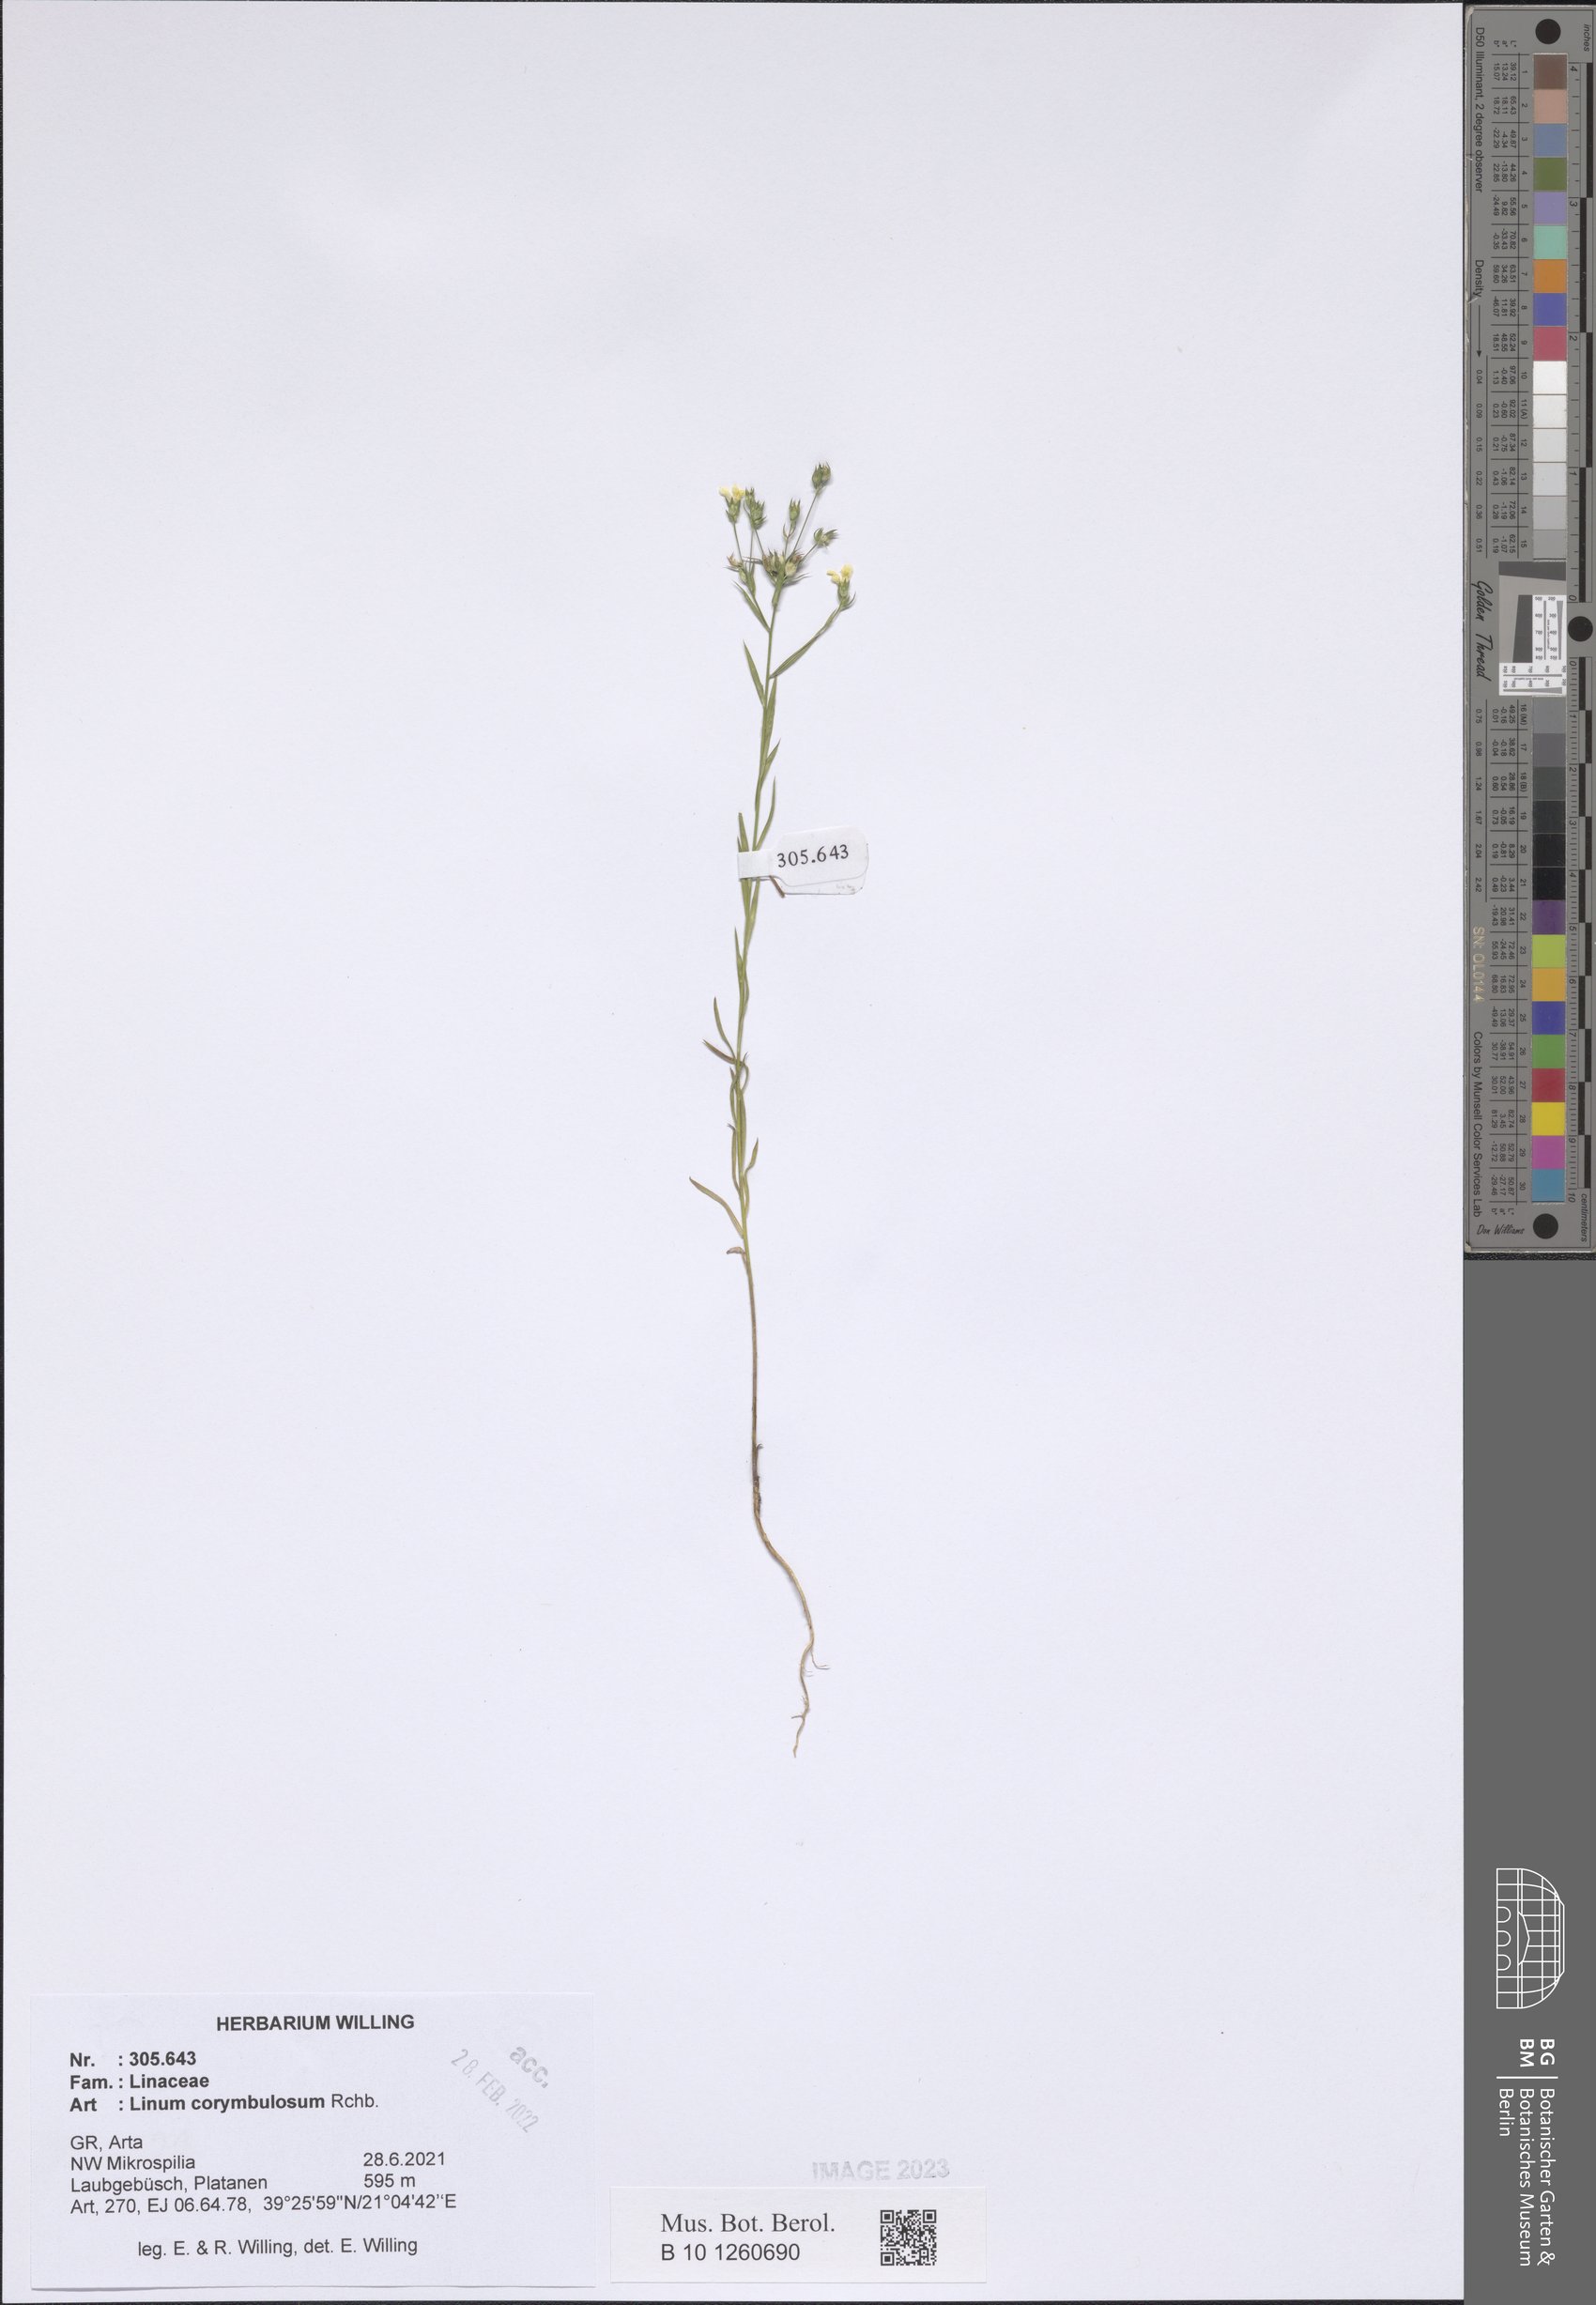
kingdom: Plantae
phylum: Tracheophyta
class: Magnoliopsida
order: Malpighiales
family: Linaceae
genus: Linum
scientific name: Linum corymbulosum
